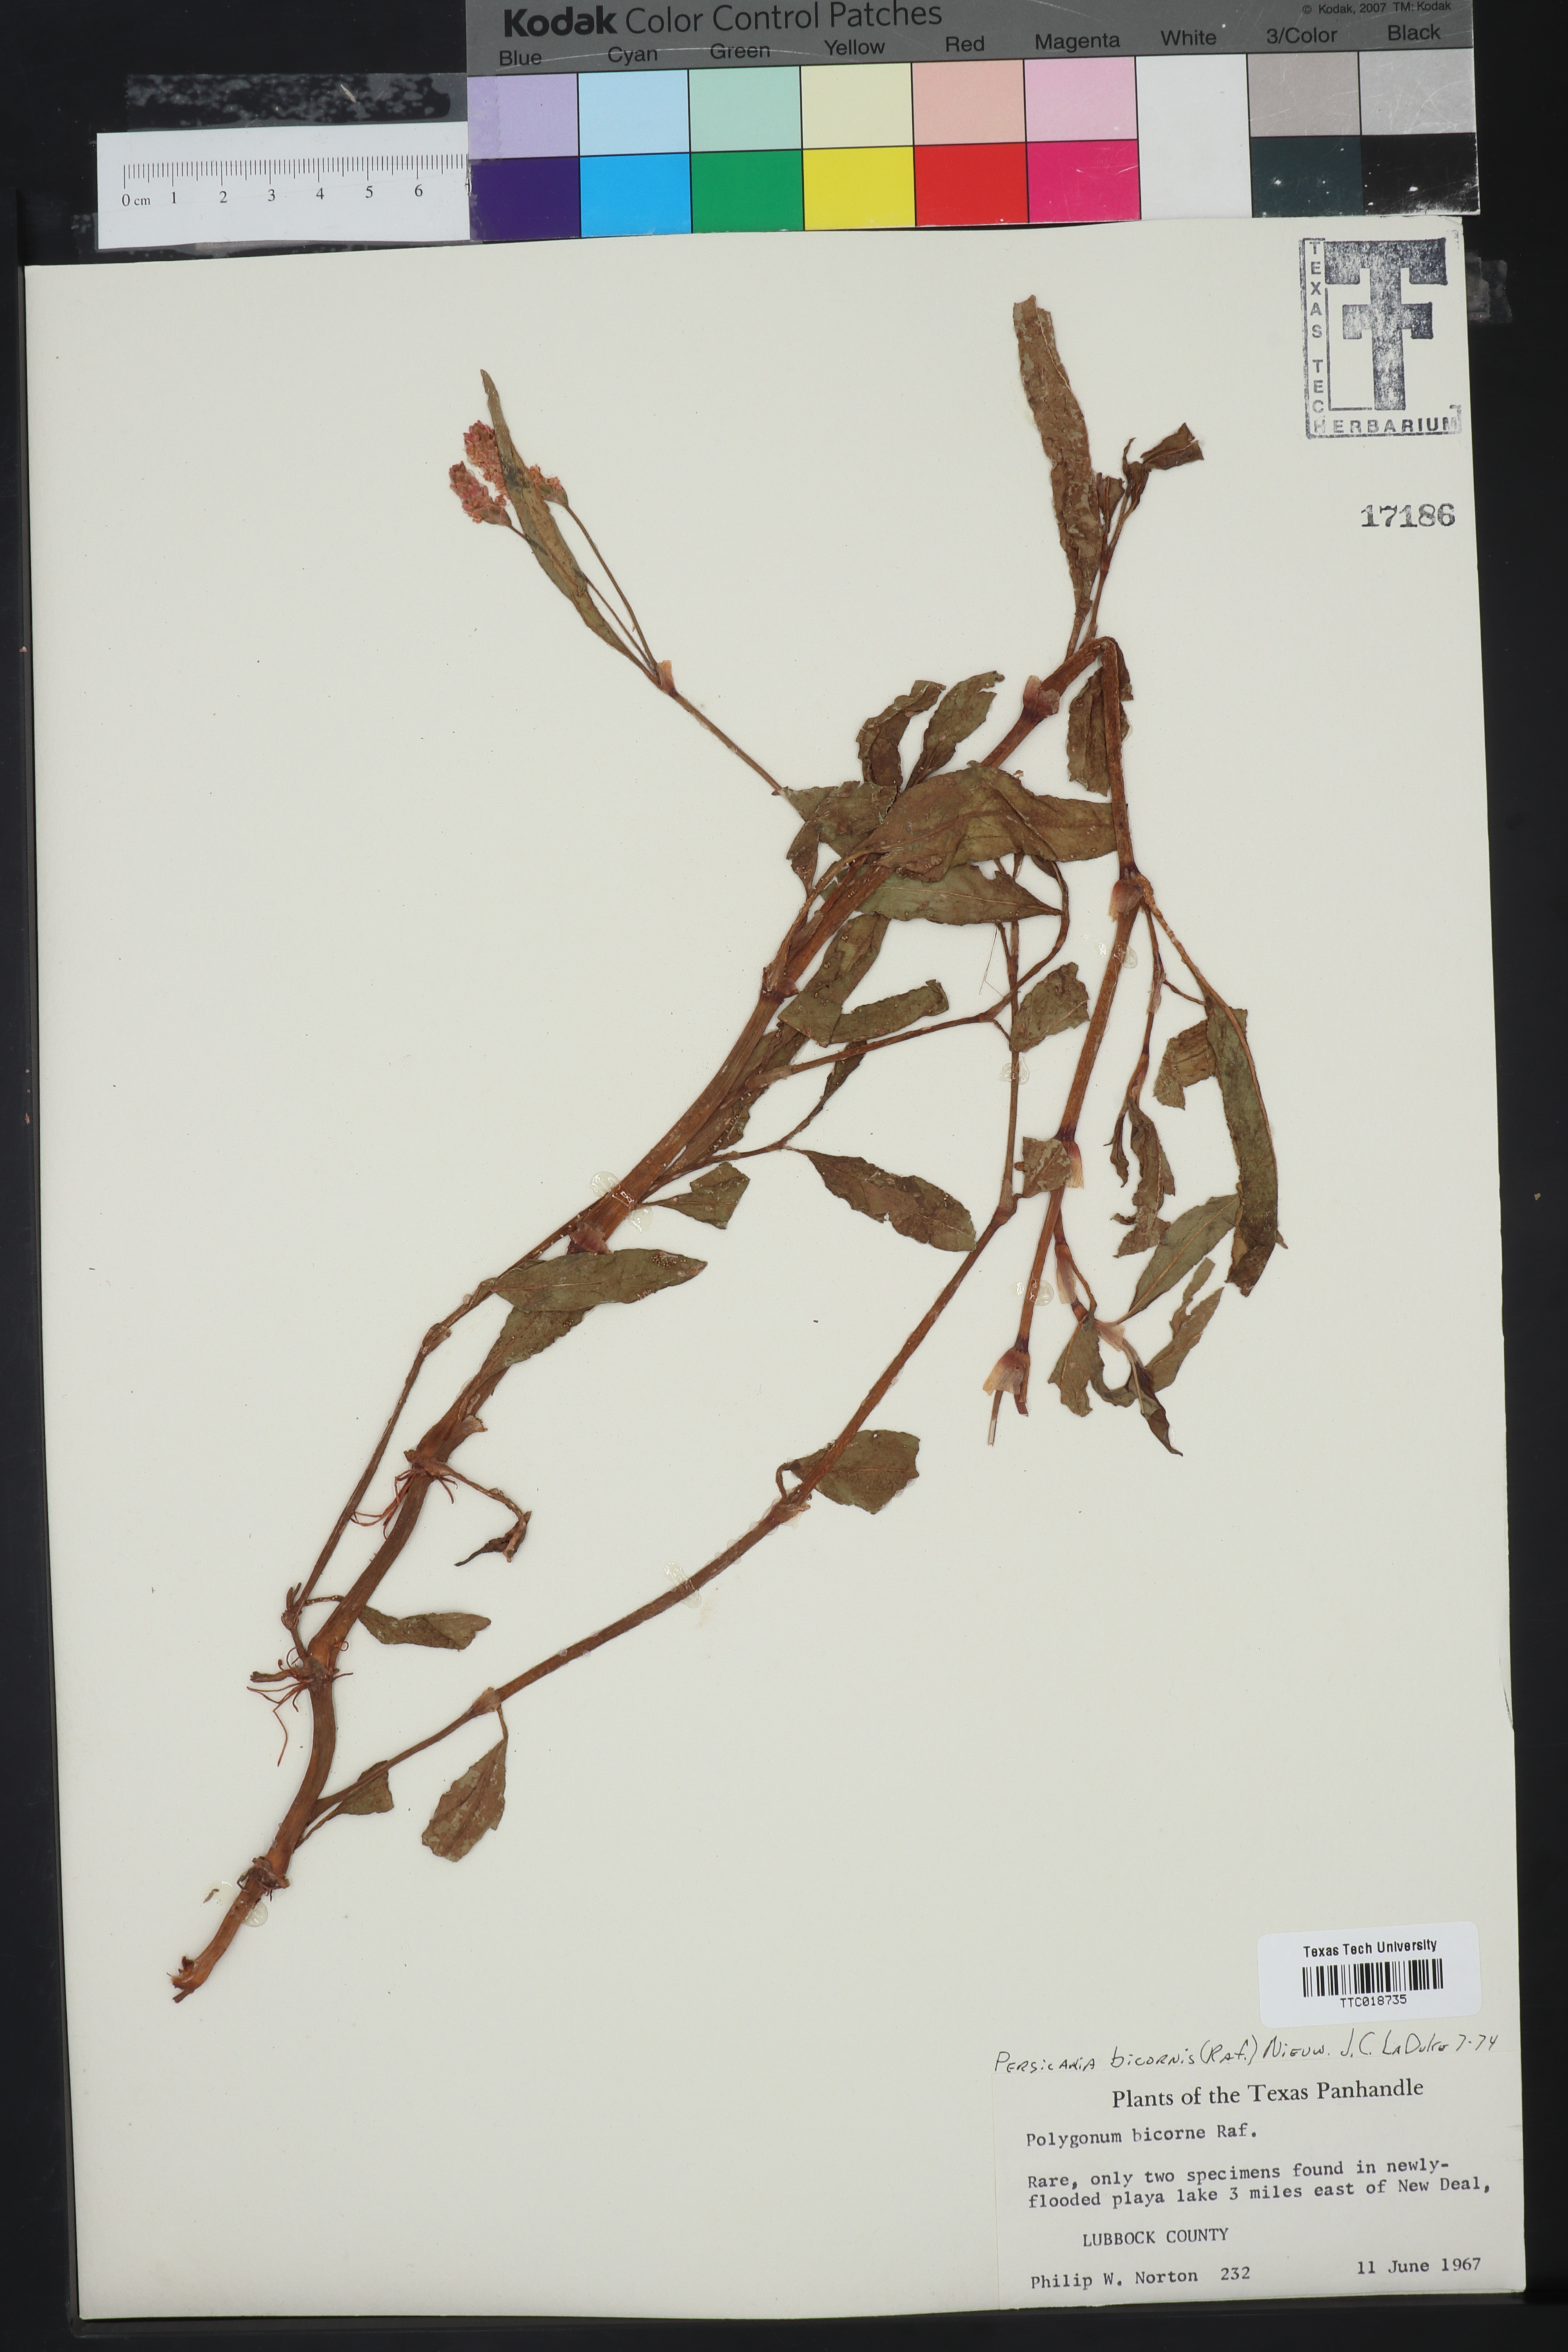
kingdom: Plantae
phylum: Tracheophyta
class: Magnoliopsida
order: Caryophyllales
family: Polygonaceae
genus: Persicaria
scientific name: Persicaria bicornis
